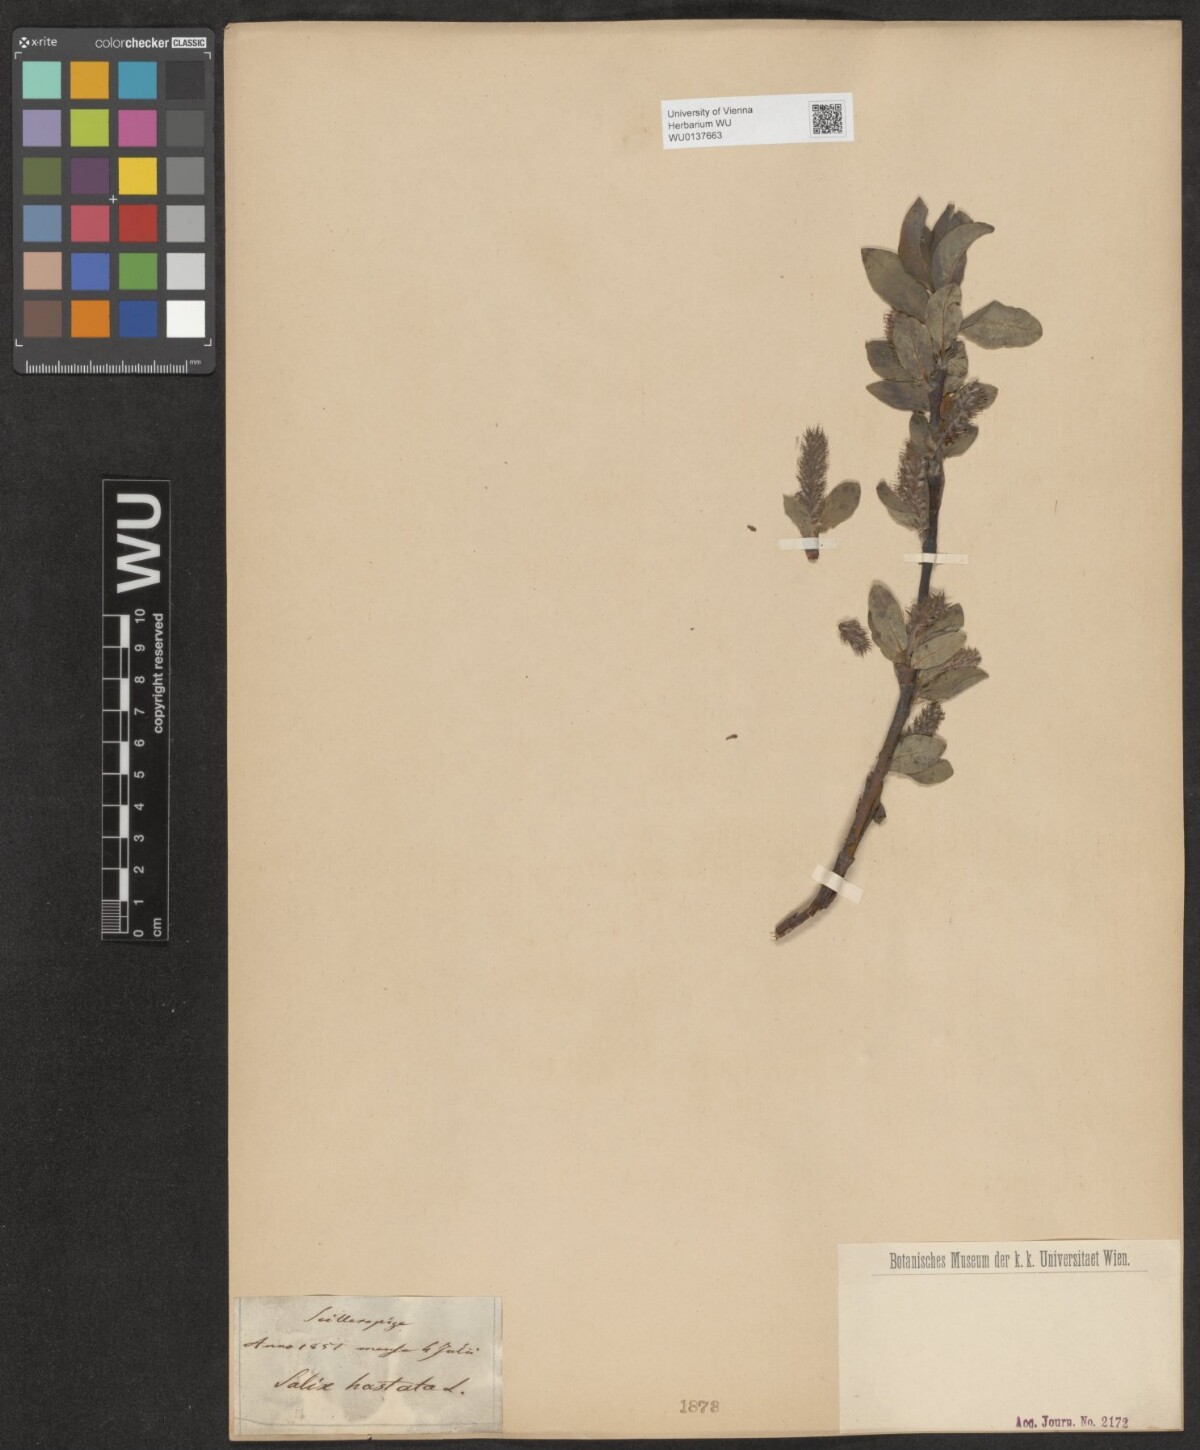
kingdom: Plantae
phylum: Tracheophyta
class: Magnoliopsida
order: Malpighiales
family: Salicaceae
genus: Salix
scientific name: Salix hastata
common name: Halberd willow
